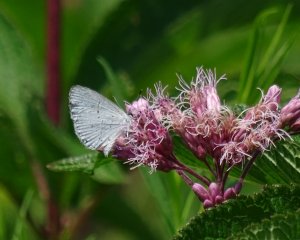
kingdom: Animalia
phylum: Arthropoda
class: Insecta
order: Lepidoptera
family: Lycaenidae
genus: Cyaniris
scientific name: Cyaniris neglecta
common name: Summer Azure
